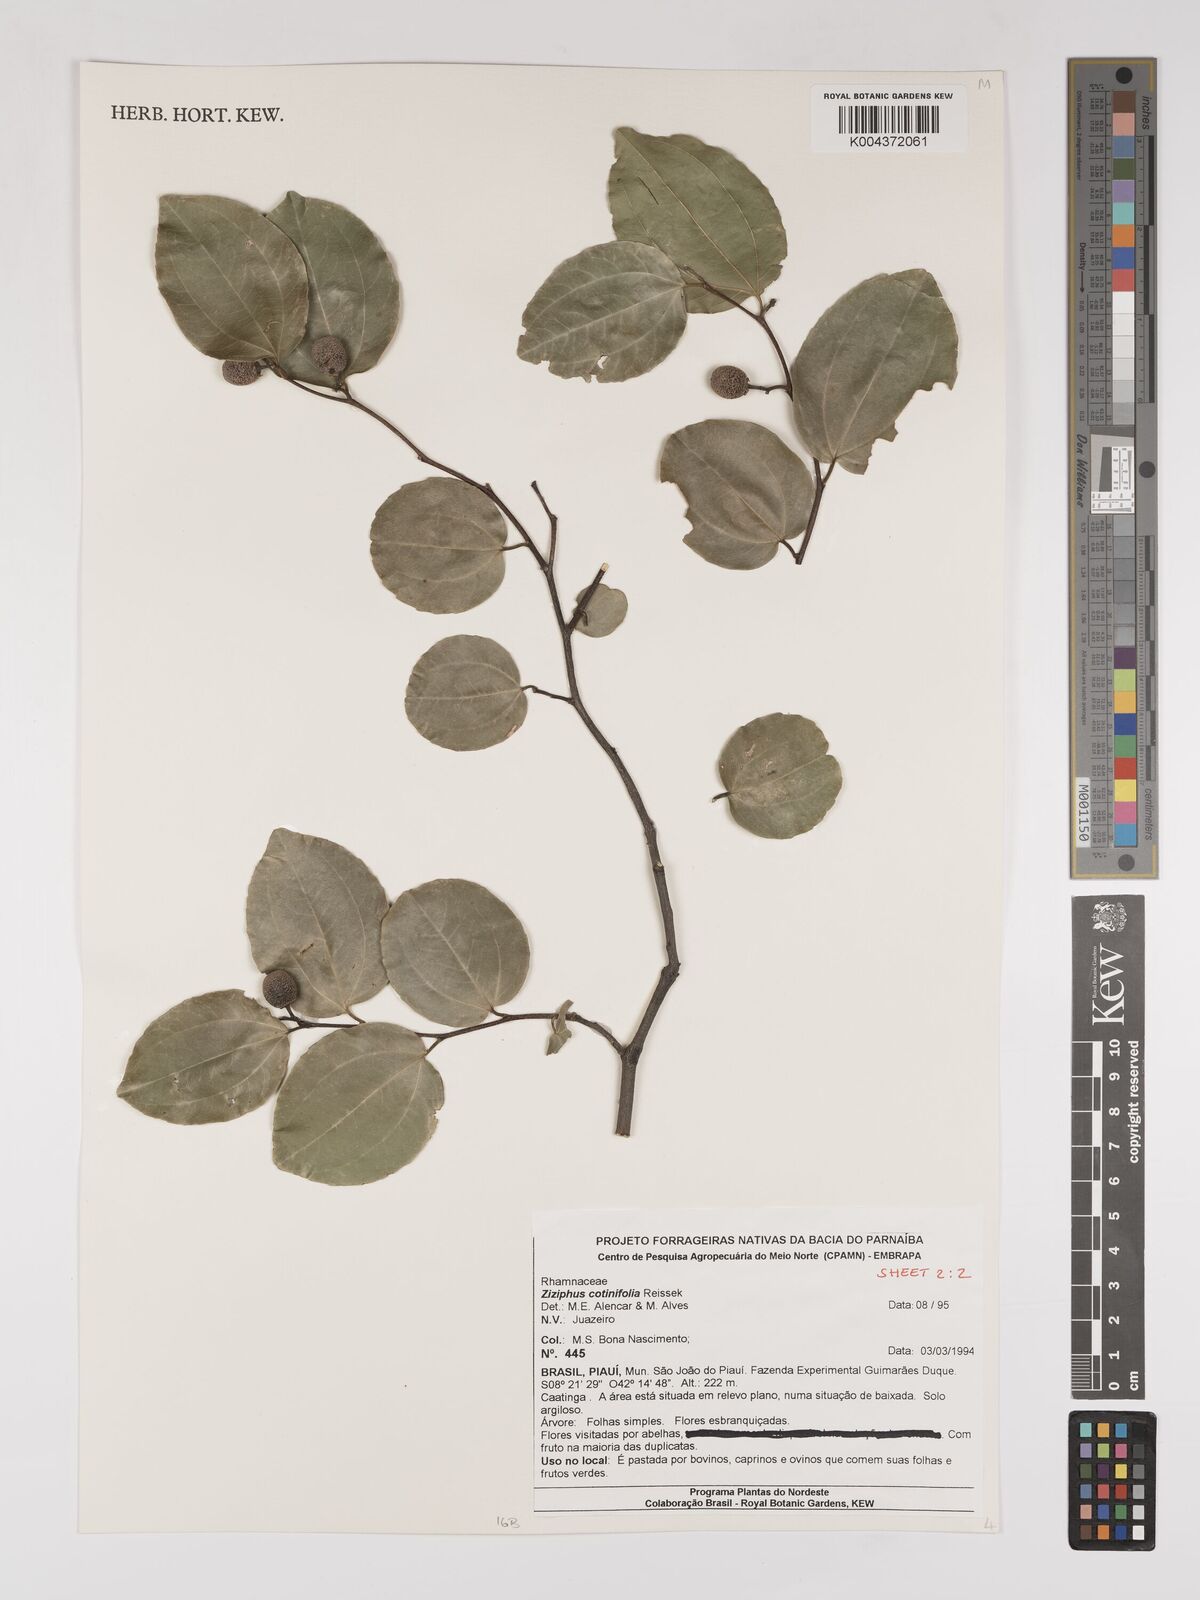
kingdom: Plantae
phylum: Tracheophyta
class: Magnoliopsida
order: Rosales
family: Rhamnaceae
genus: Sarcomphalus
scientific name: Sarcomphalus cotinifolius
